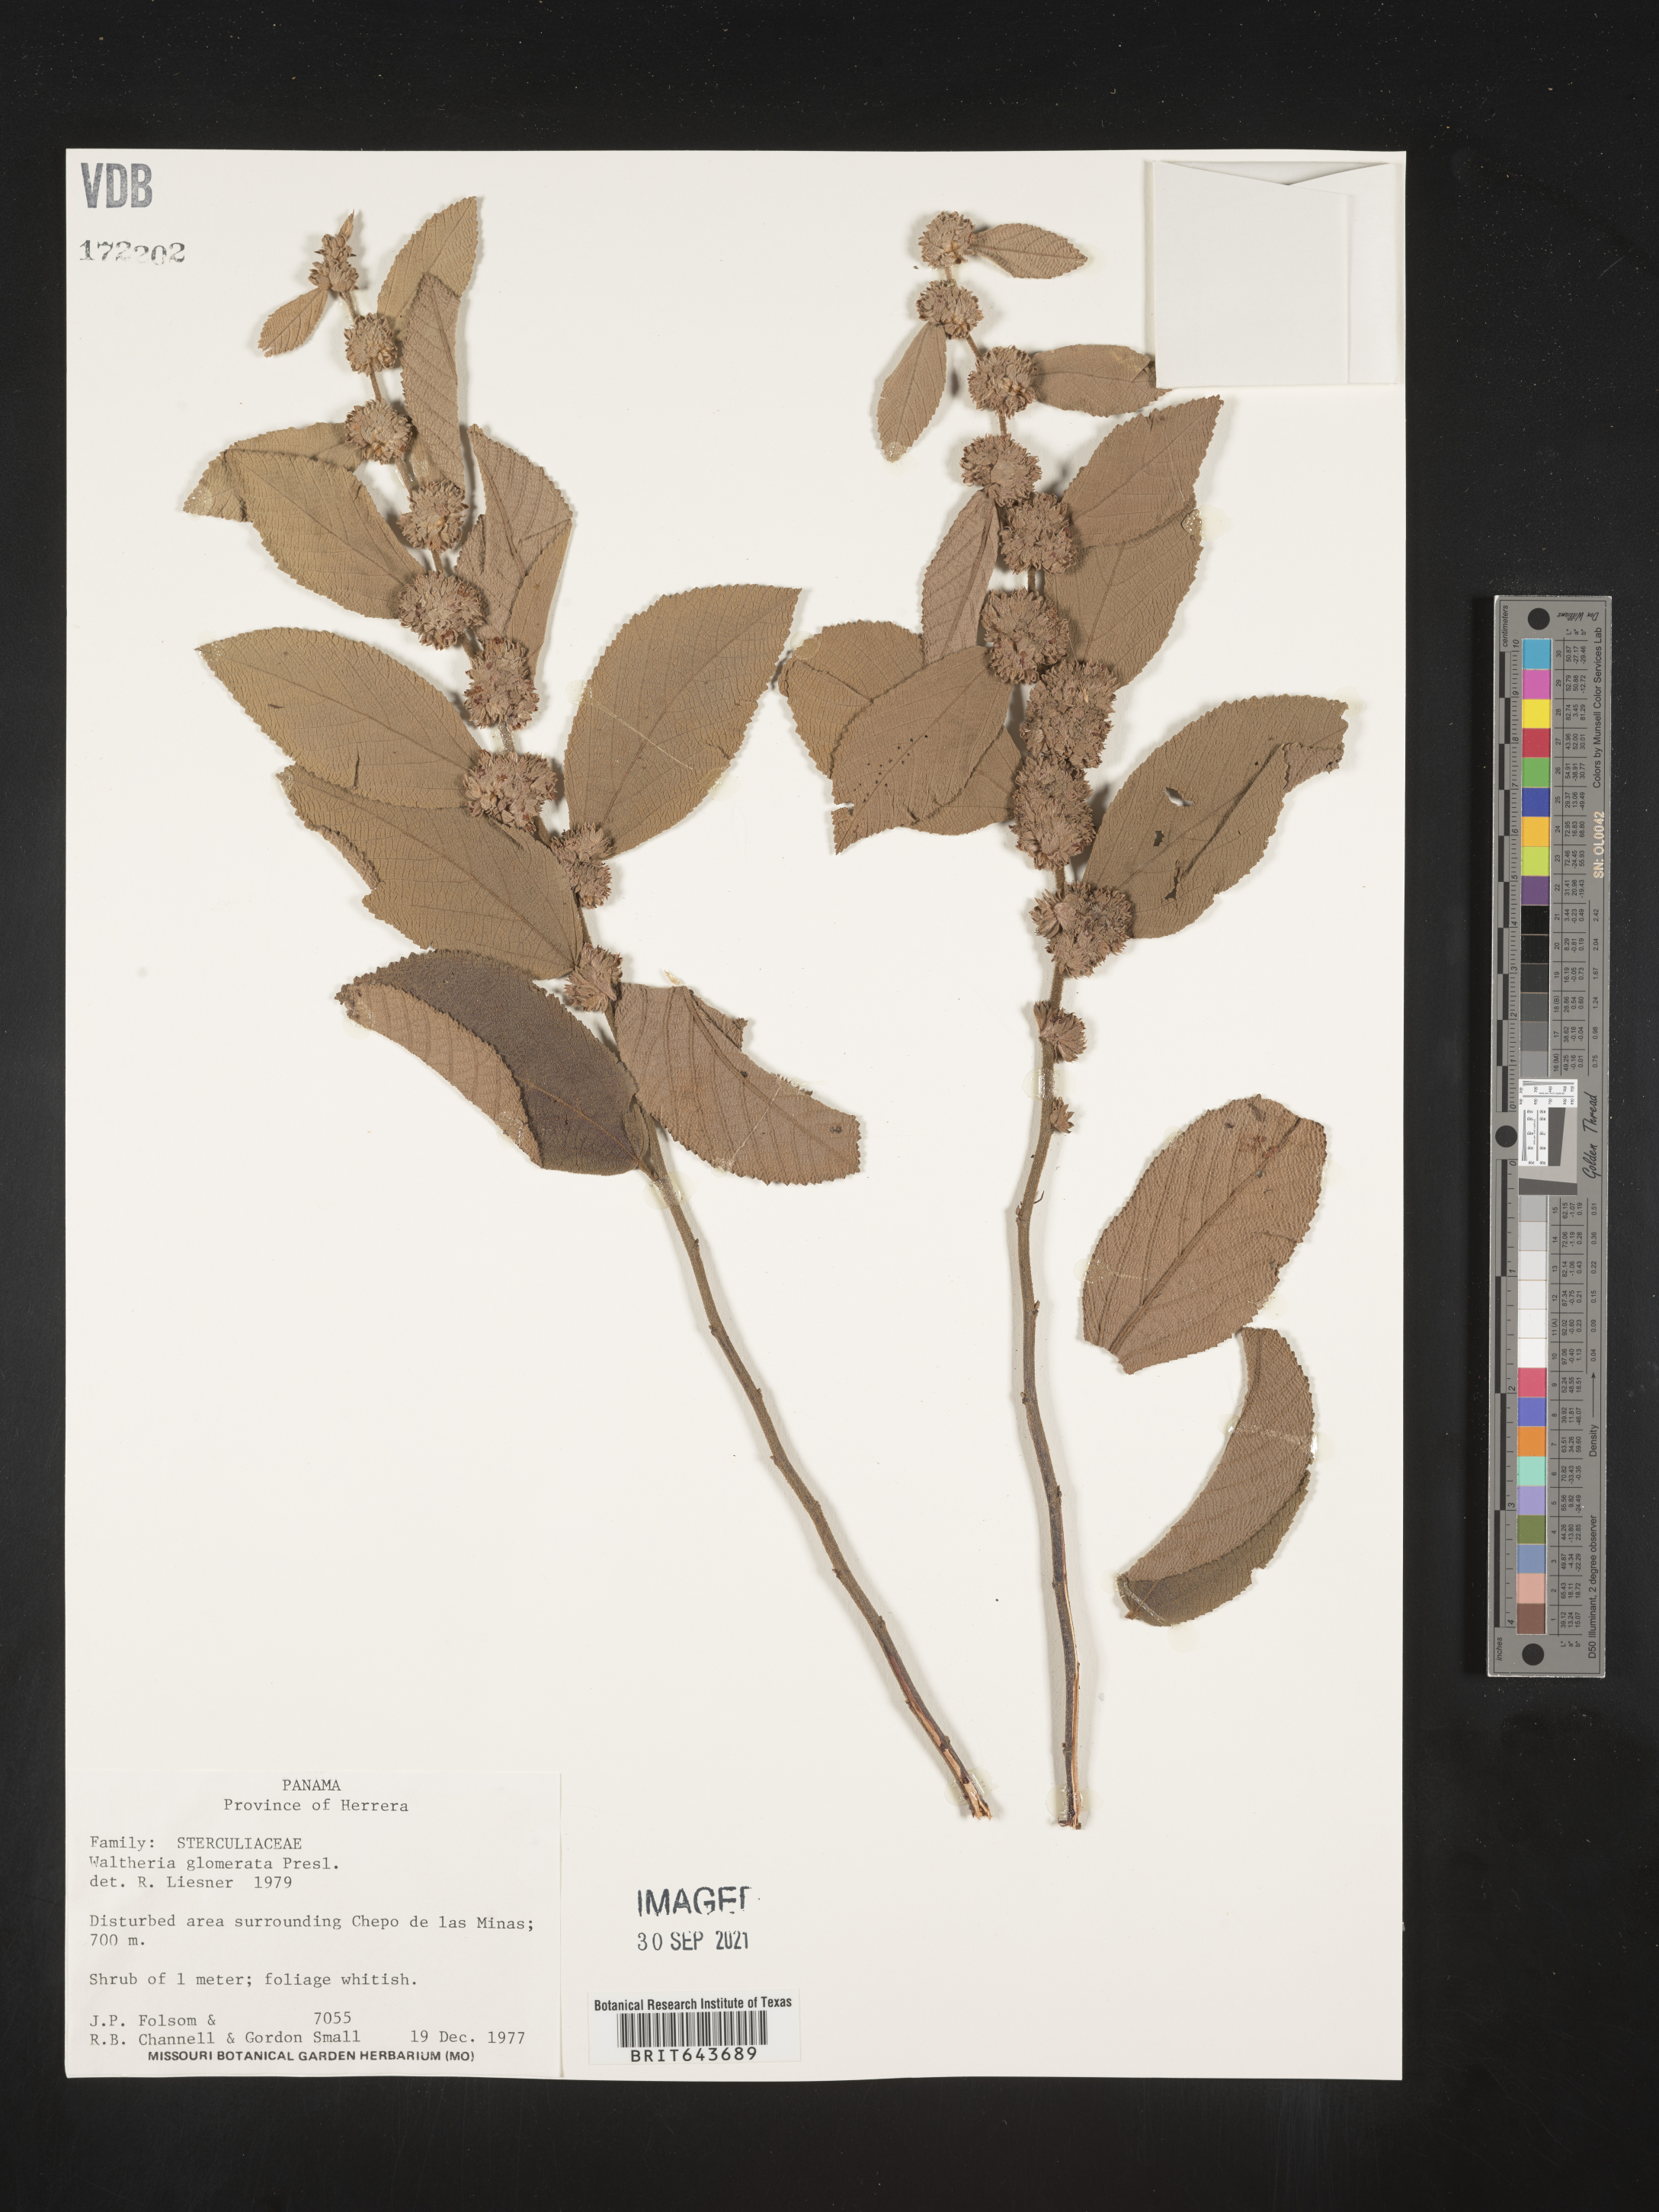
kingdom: Plantae
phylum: Tracheophyta
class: Magnoliopsida
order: Malvales
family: Malvaceae
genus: Waltheria
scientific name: Waltheria
